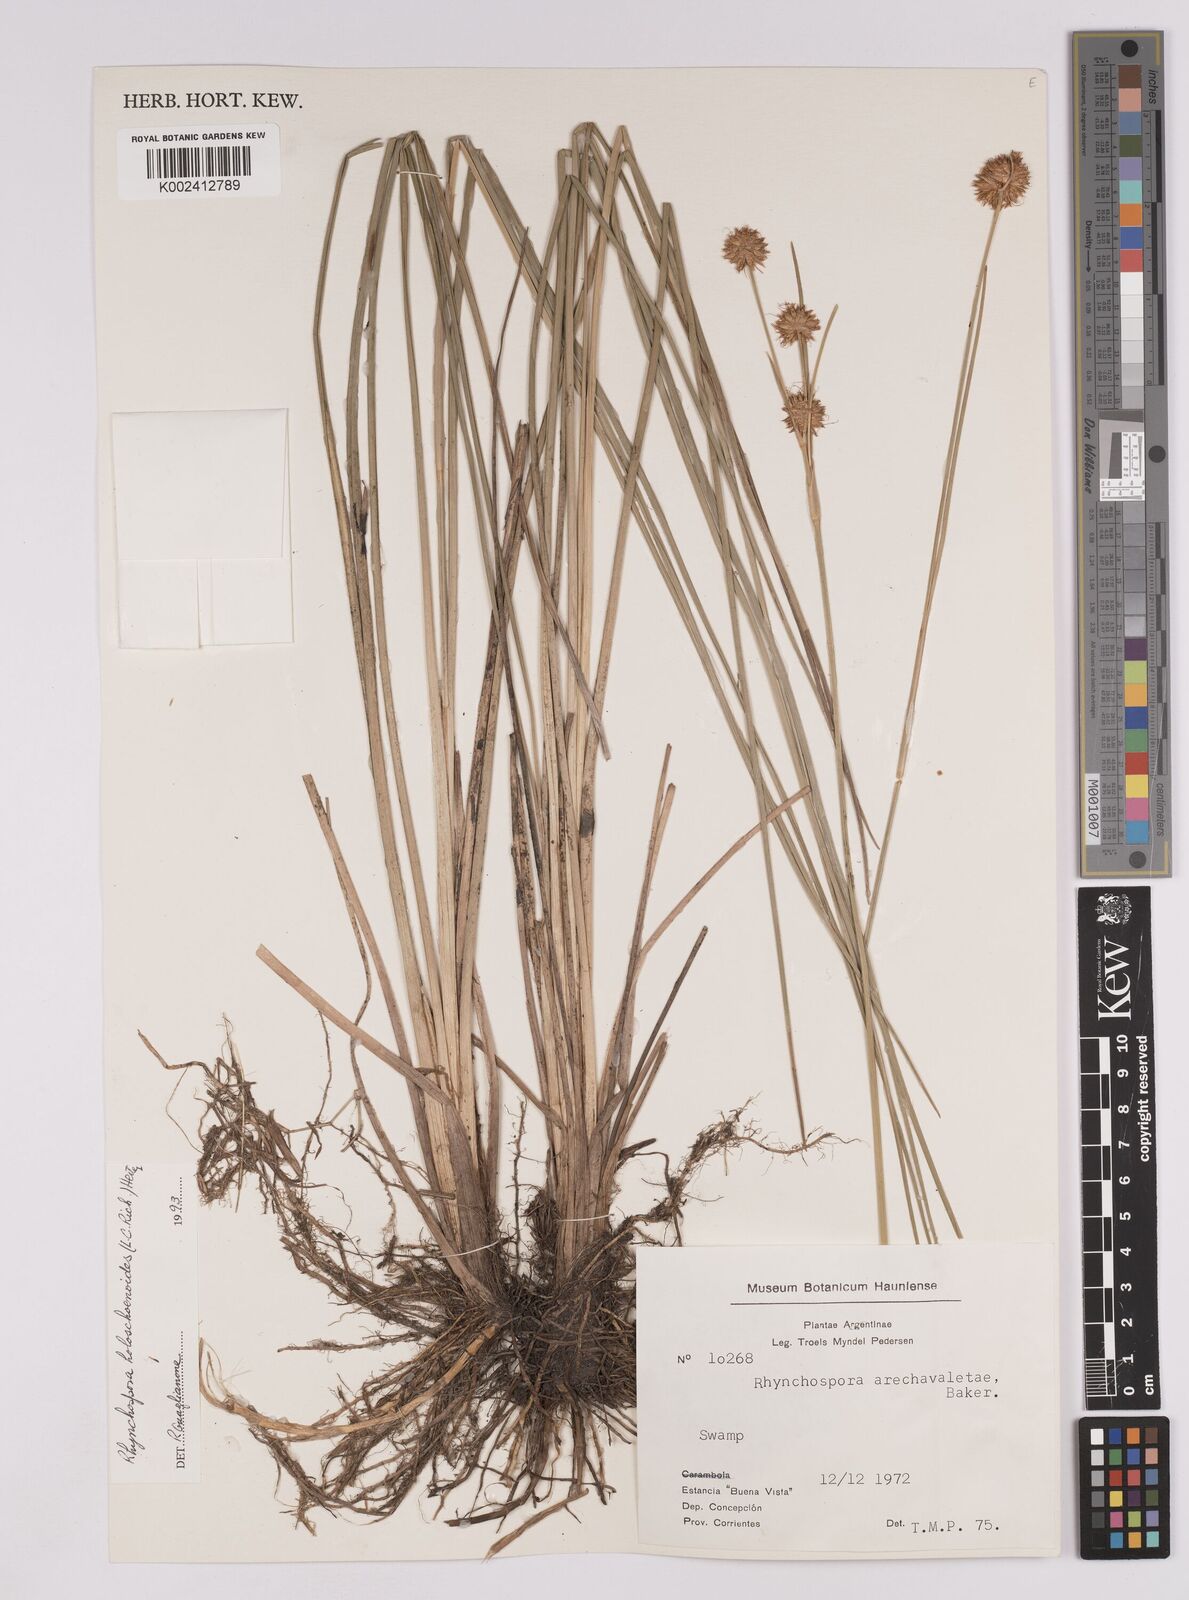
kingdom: Plantae
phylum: Tracheophyta
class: Liliopsida
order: Poales
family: Cyperaceae
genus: Rhynchospora
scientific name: Rhynchospora holoschoenoides
